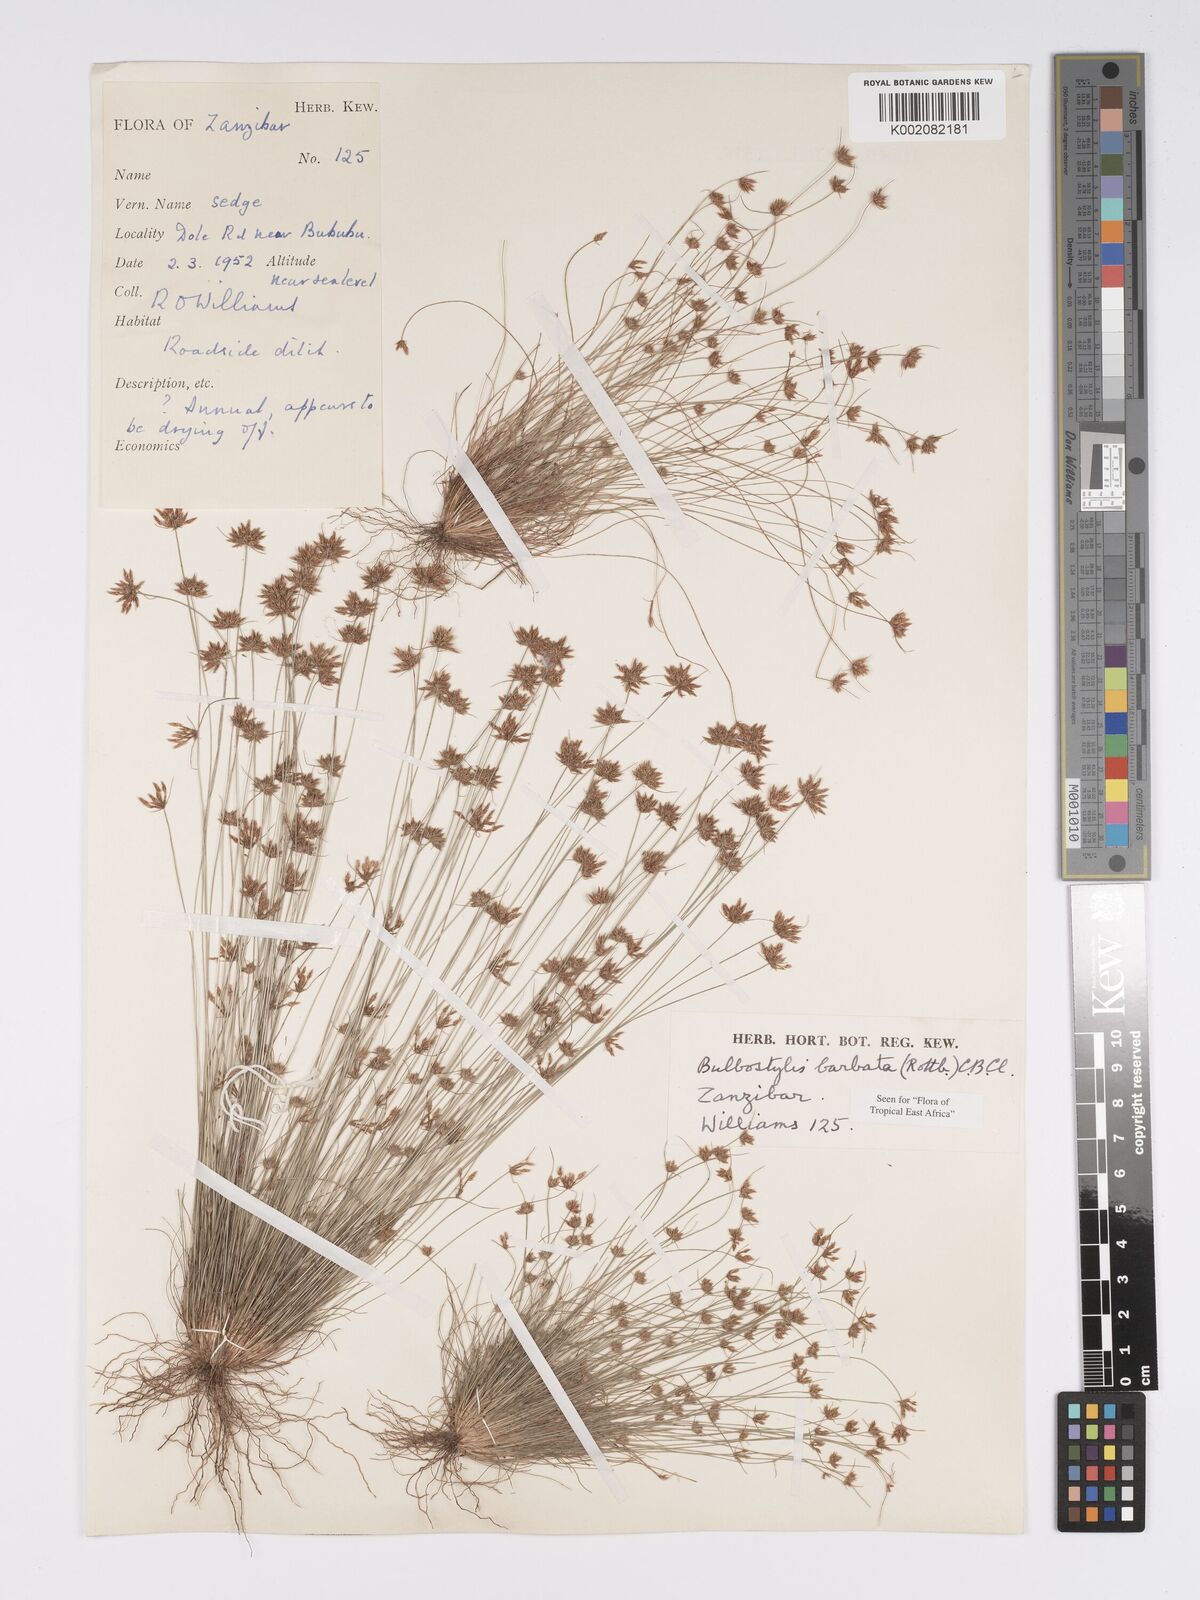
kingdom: Plantae
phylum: Tracheophyta
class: Liliopsida
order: Poales
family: Cyperaceae
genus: Bulbostylis
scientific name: Bulbostylis barbata
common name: Watergrass
